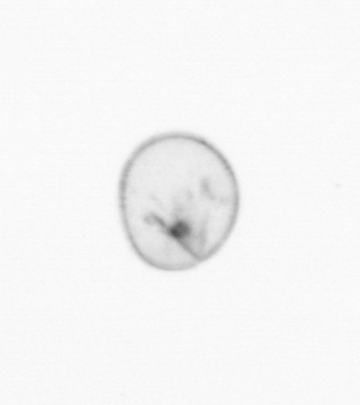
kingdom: Chromista
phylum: Myzozoa
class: Dinophyceae
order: Noctilucales
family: Noctilucaceae
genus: Noctiluca
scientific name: Noctiluca scintillans
